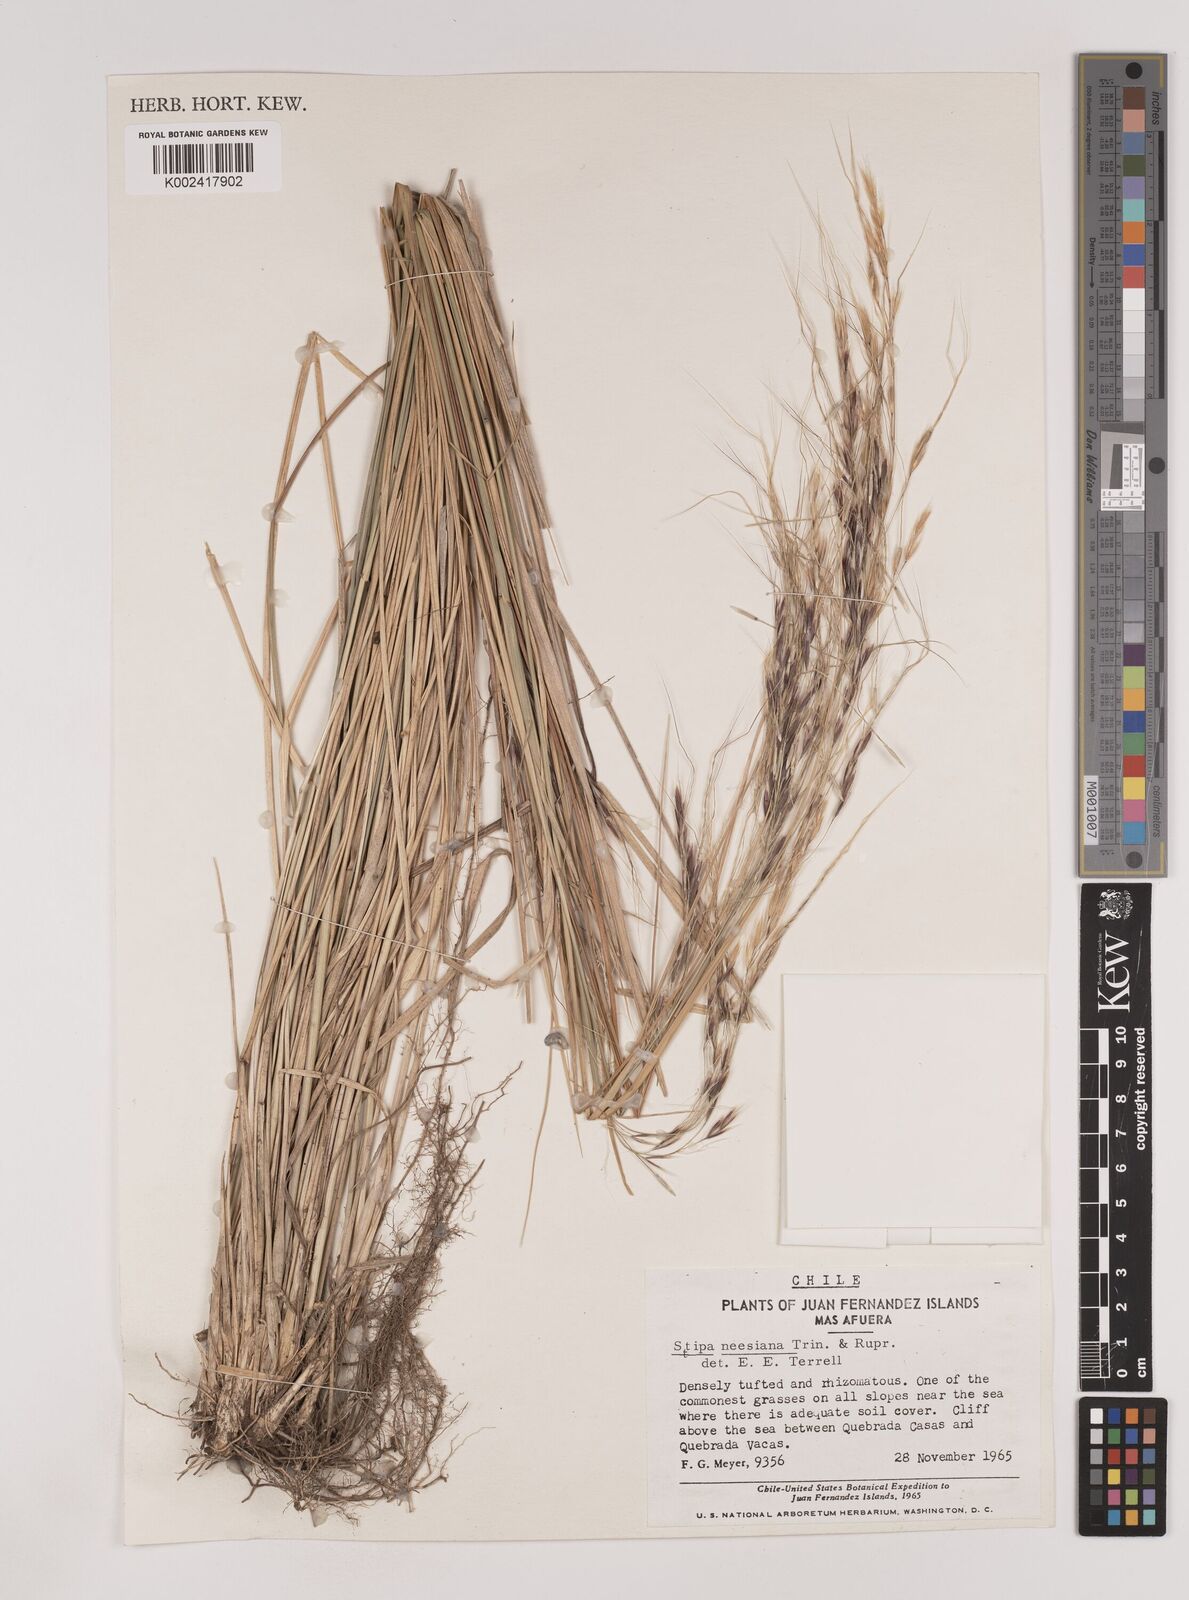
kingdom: Plantae
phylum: Tracheophyta
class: Liliopsida
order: Poales
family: Poaceae
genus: Nassella
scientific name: Nassella neesiana
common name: American needle-grass
